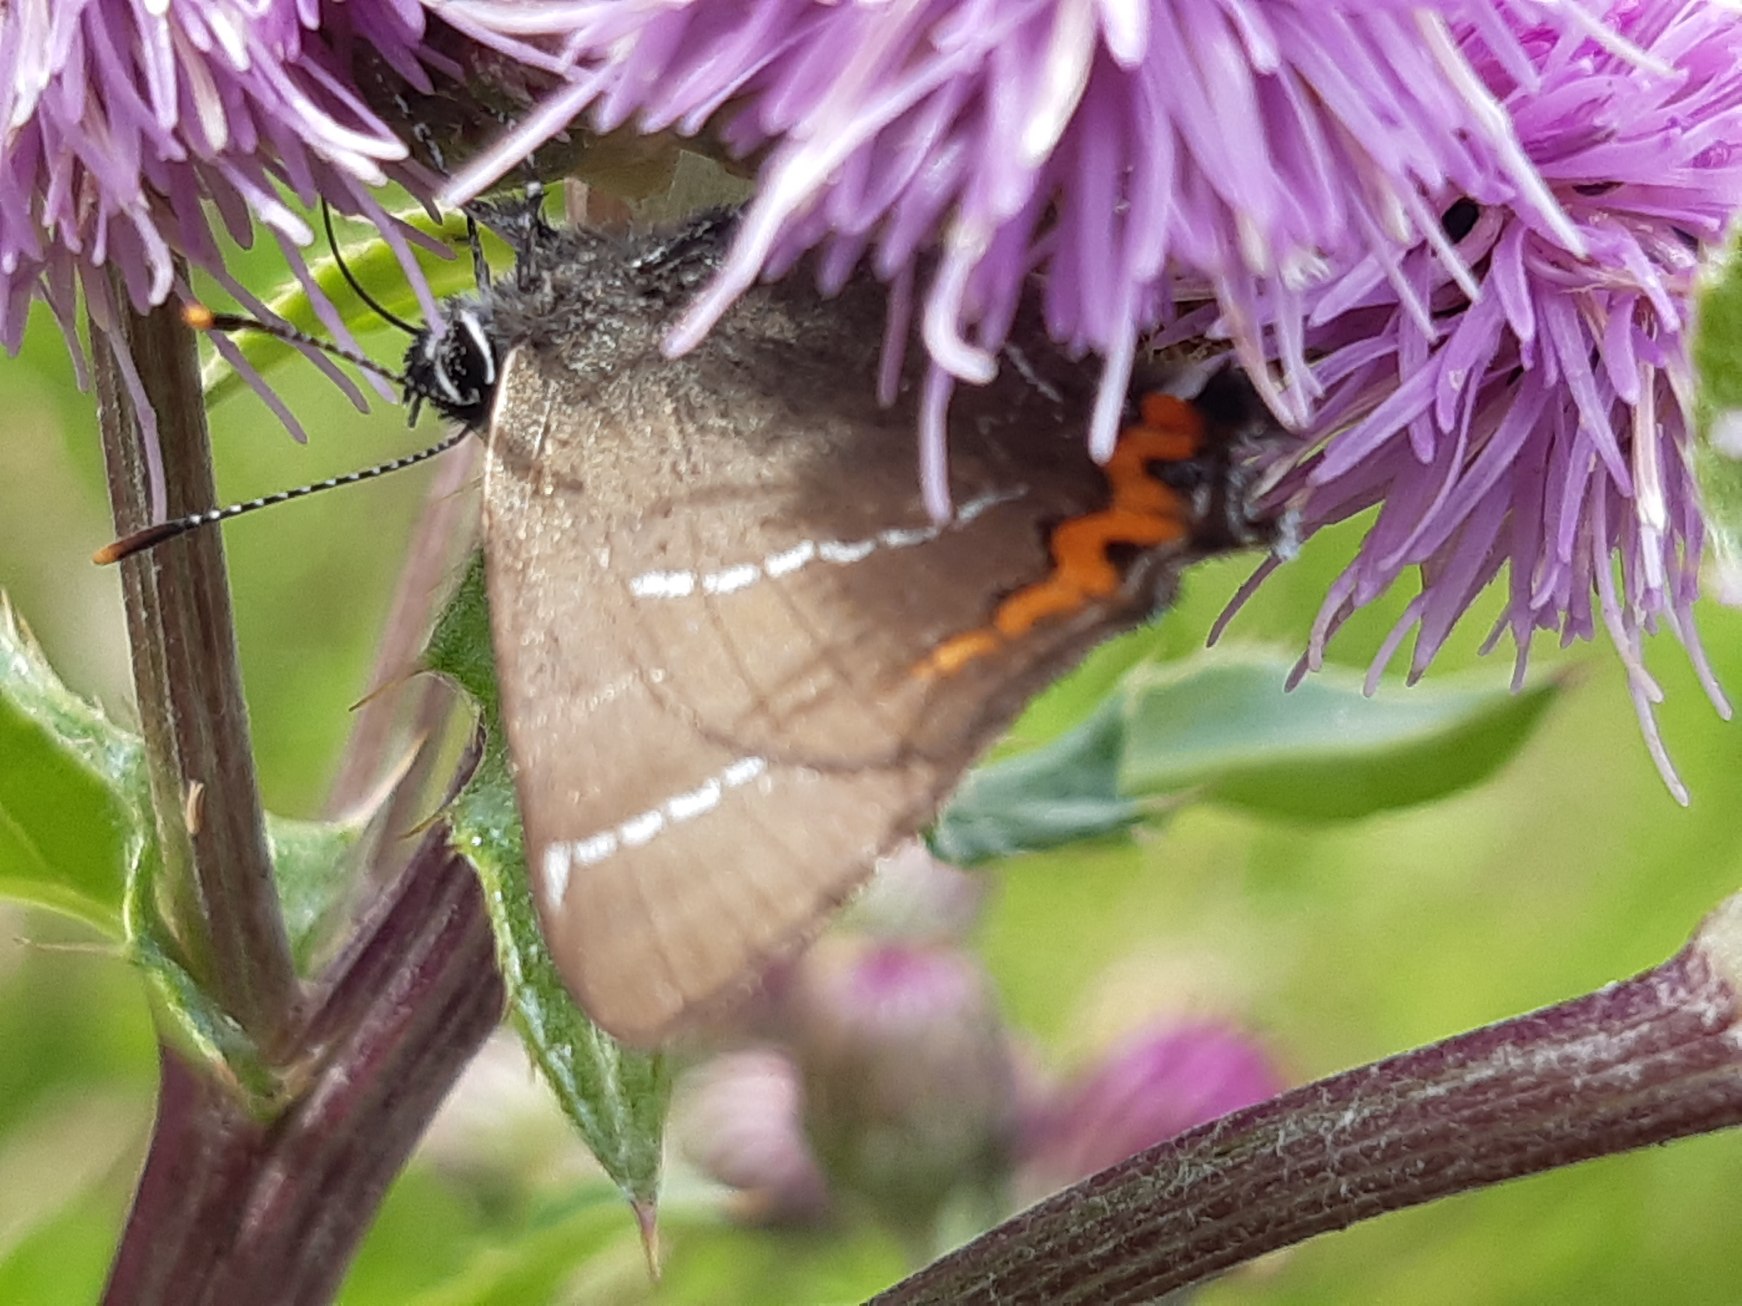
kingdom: Animalia
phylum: Arthropoda
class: Insecta
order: Lepidoptera
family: Lycaenidae
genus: Satyrium
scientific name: Satyrium w-album
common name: Det hvide W
